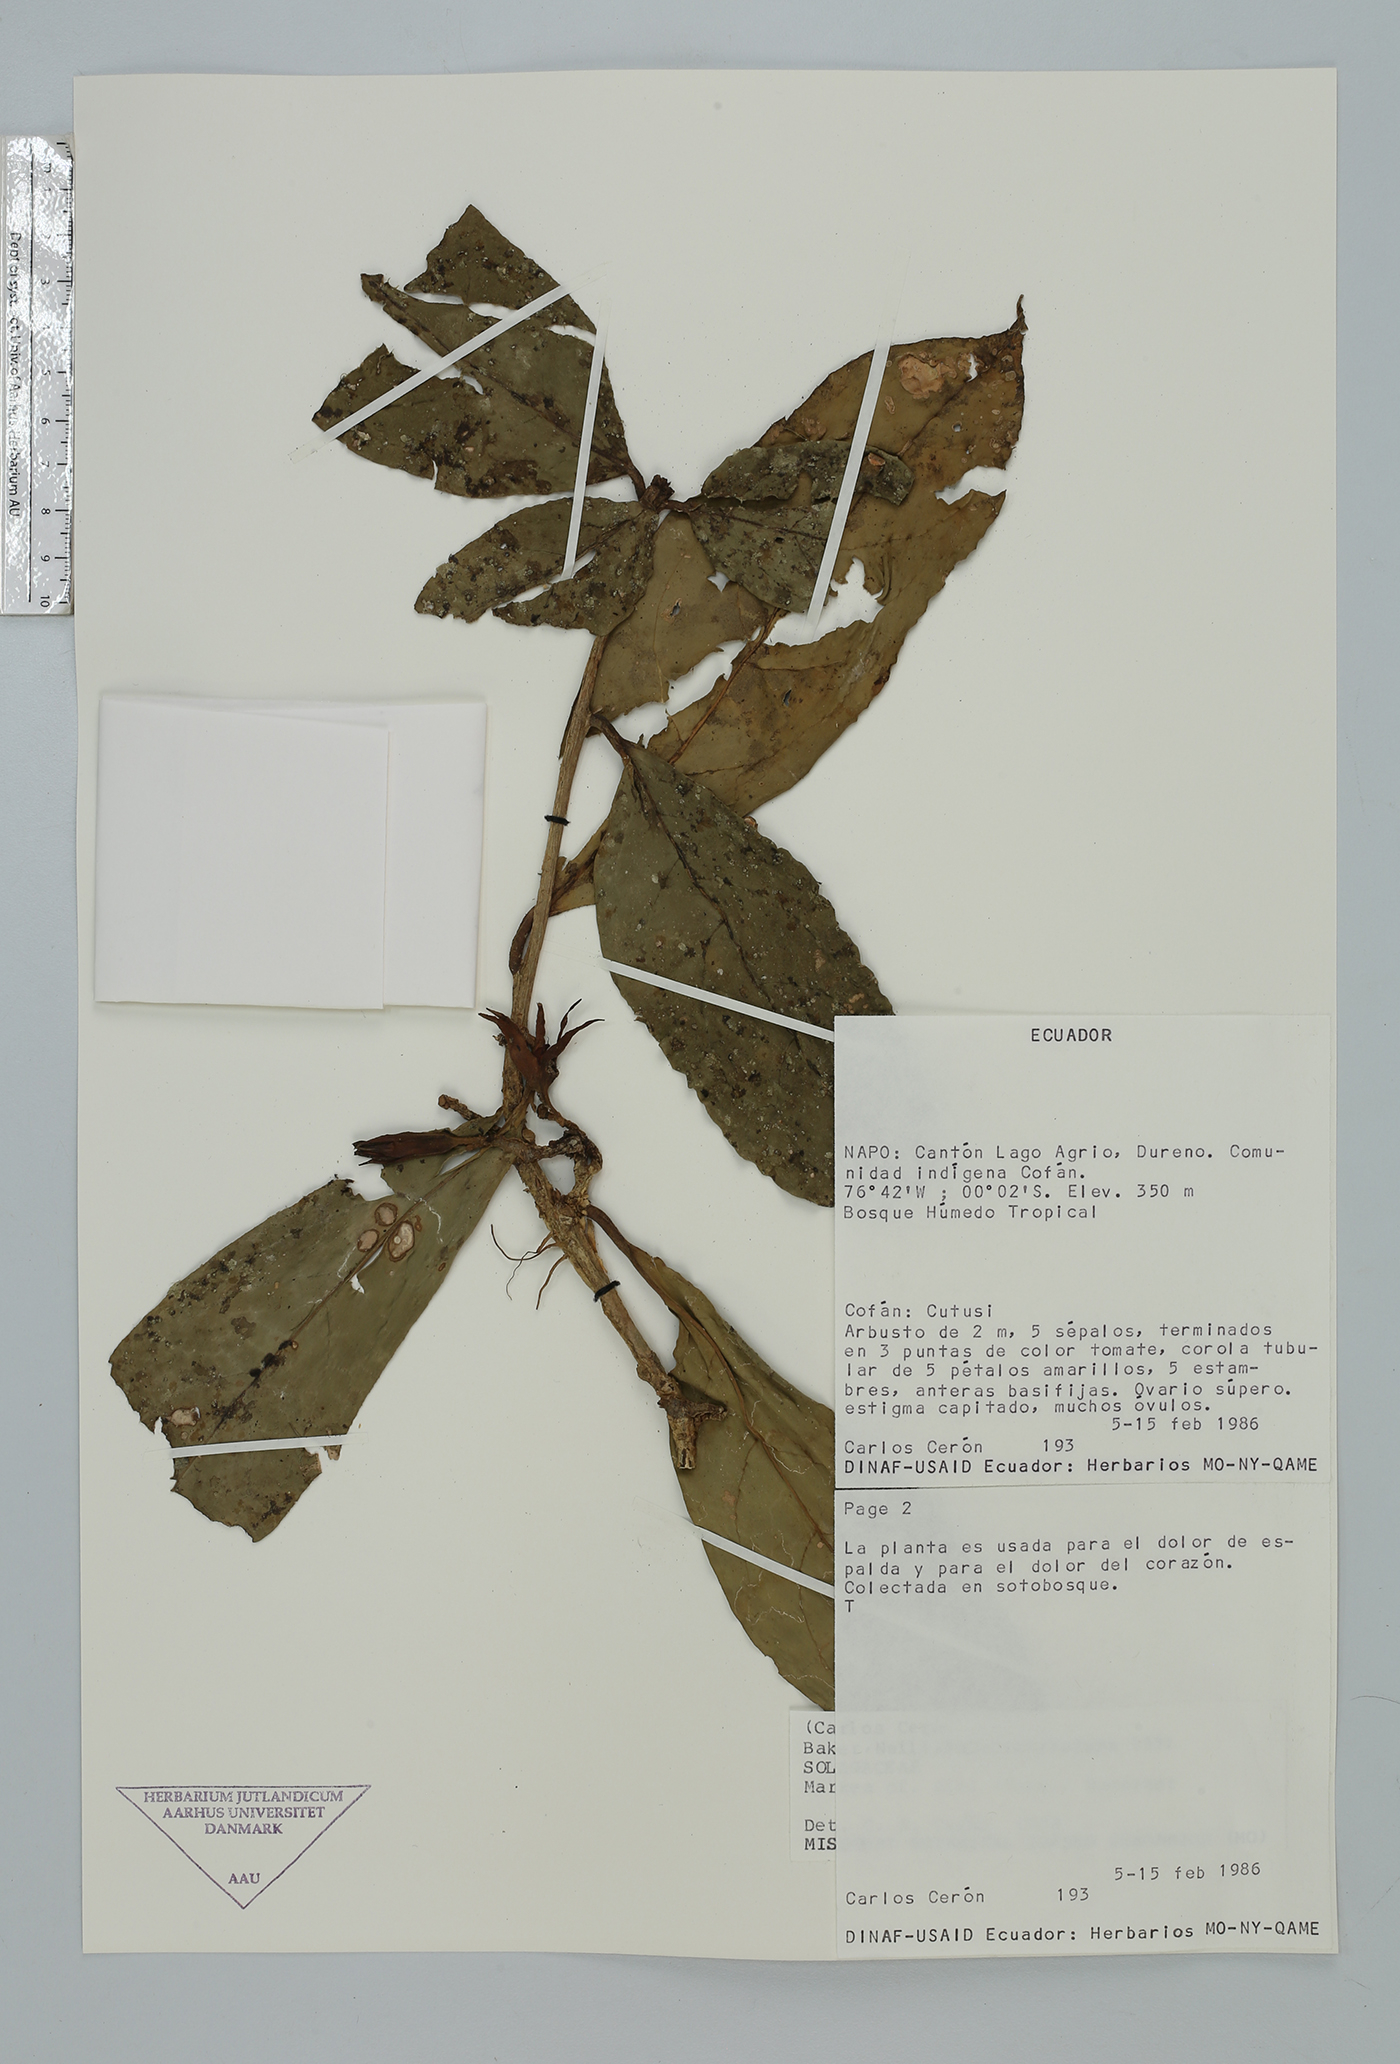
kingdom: Plantae
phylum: Tracheophyta
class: Magnoliopsida
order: Solanales
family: Solanaceae
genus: Hawkesiophyton
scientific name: Hawkesiophyton ochraceum
